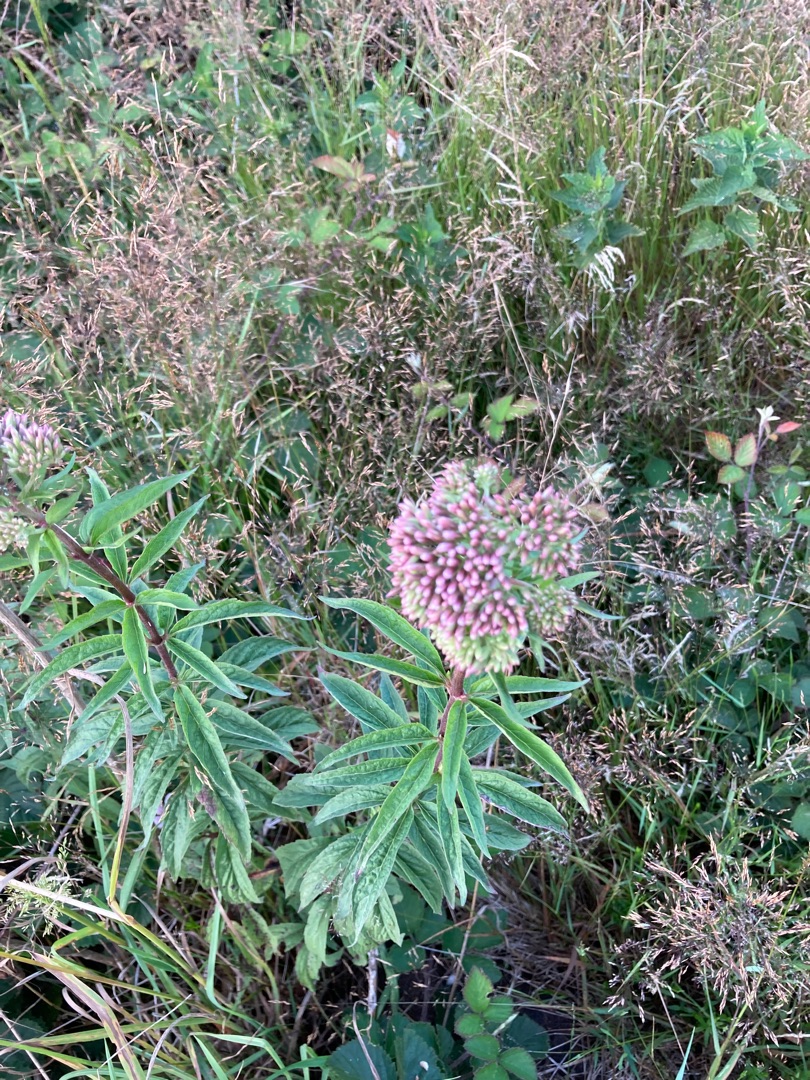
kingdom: Plantae
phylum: Tracheophyta
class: Magnoliopsida
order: Asterales
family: Asteraceae
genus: Eupatorium
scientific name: Eupatorium cannabinum
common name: Hjortetrøst
